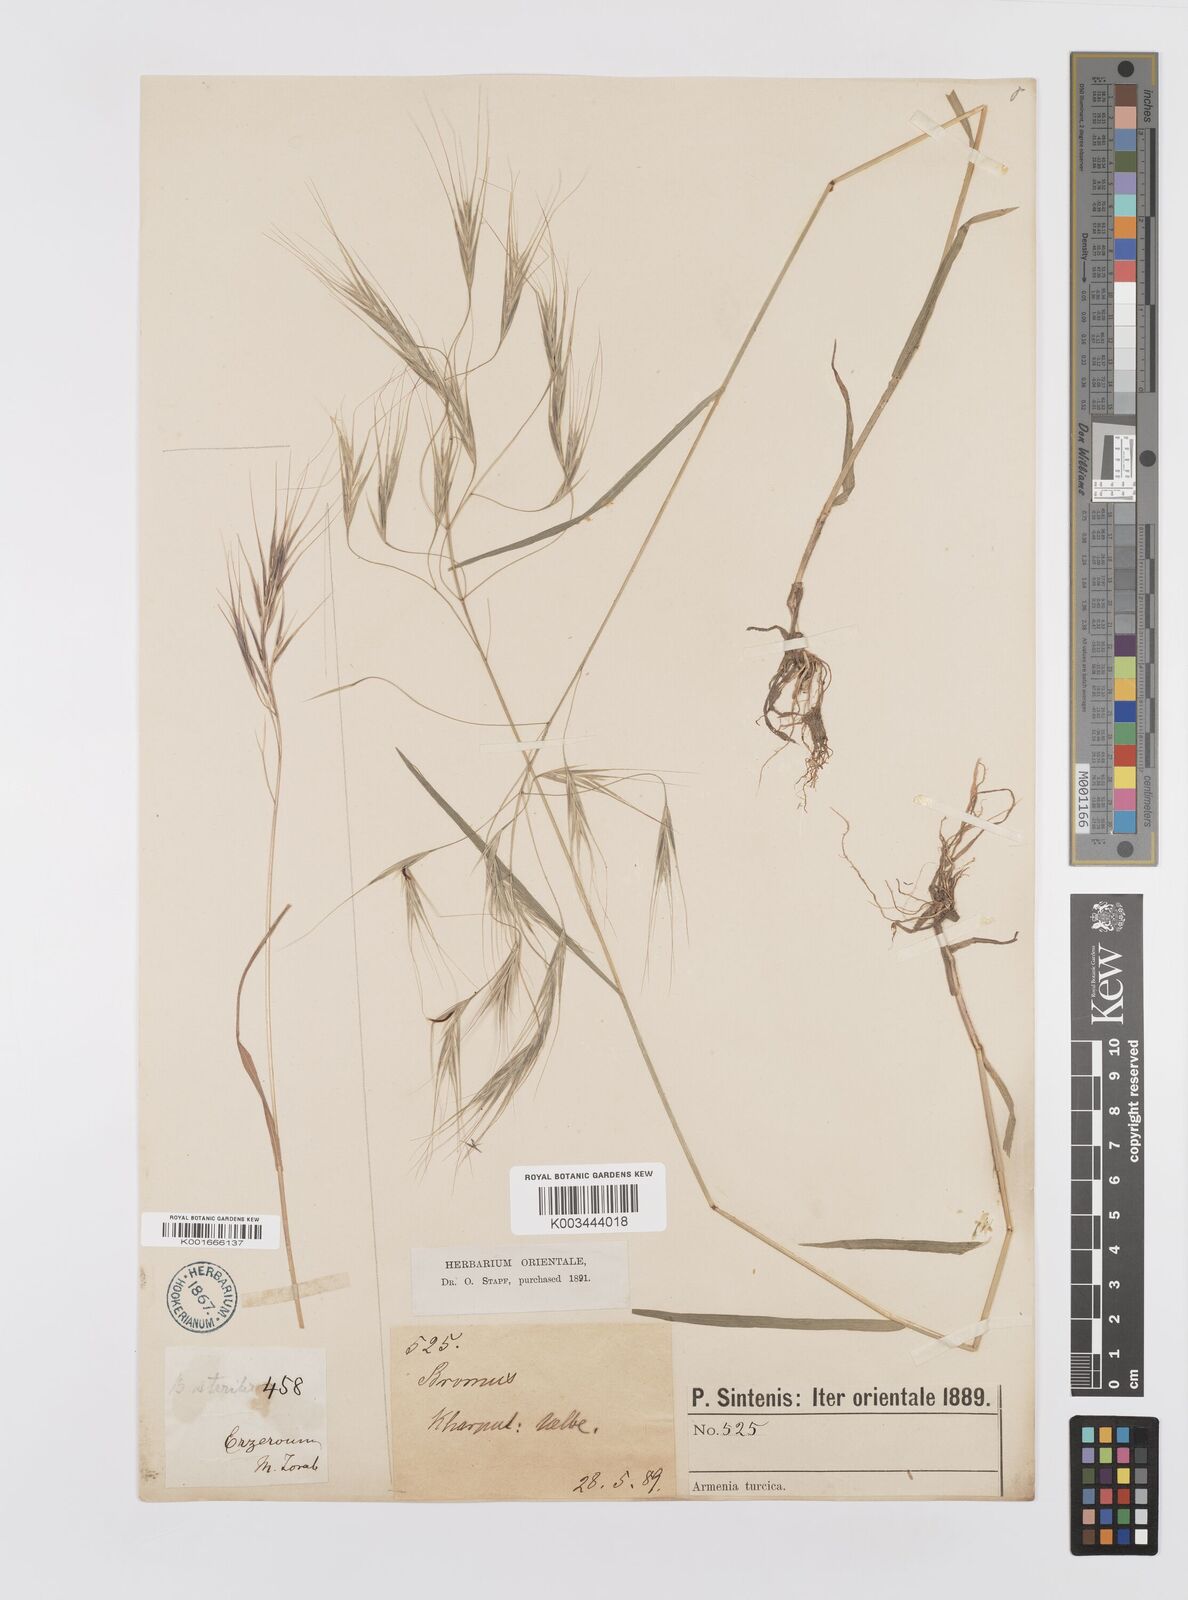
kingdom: Plantae
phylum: Tracheophyta
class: Liliopsida
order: Poales
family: Poaceae
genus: Bromus
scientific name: Bromus sterilis
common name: Poverty brome
